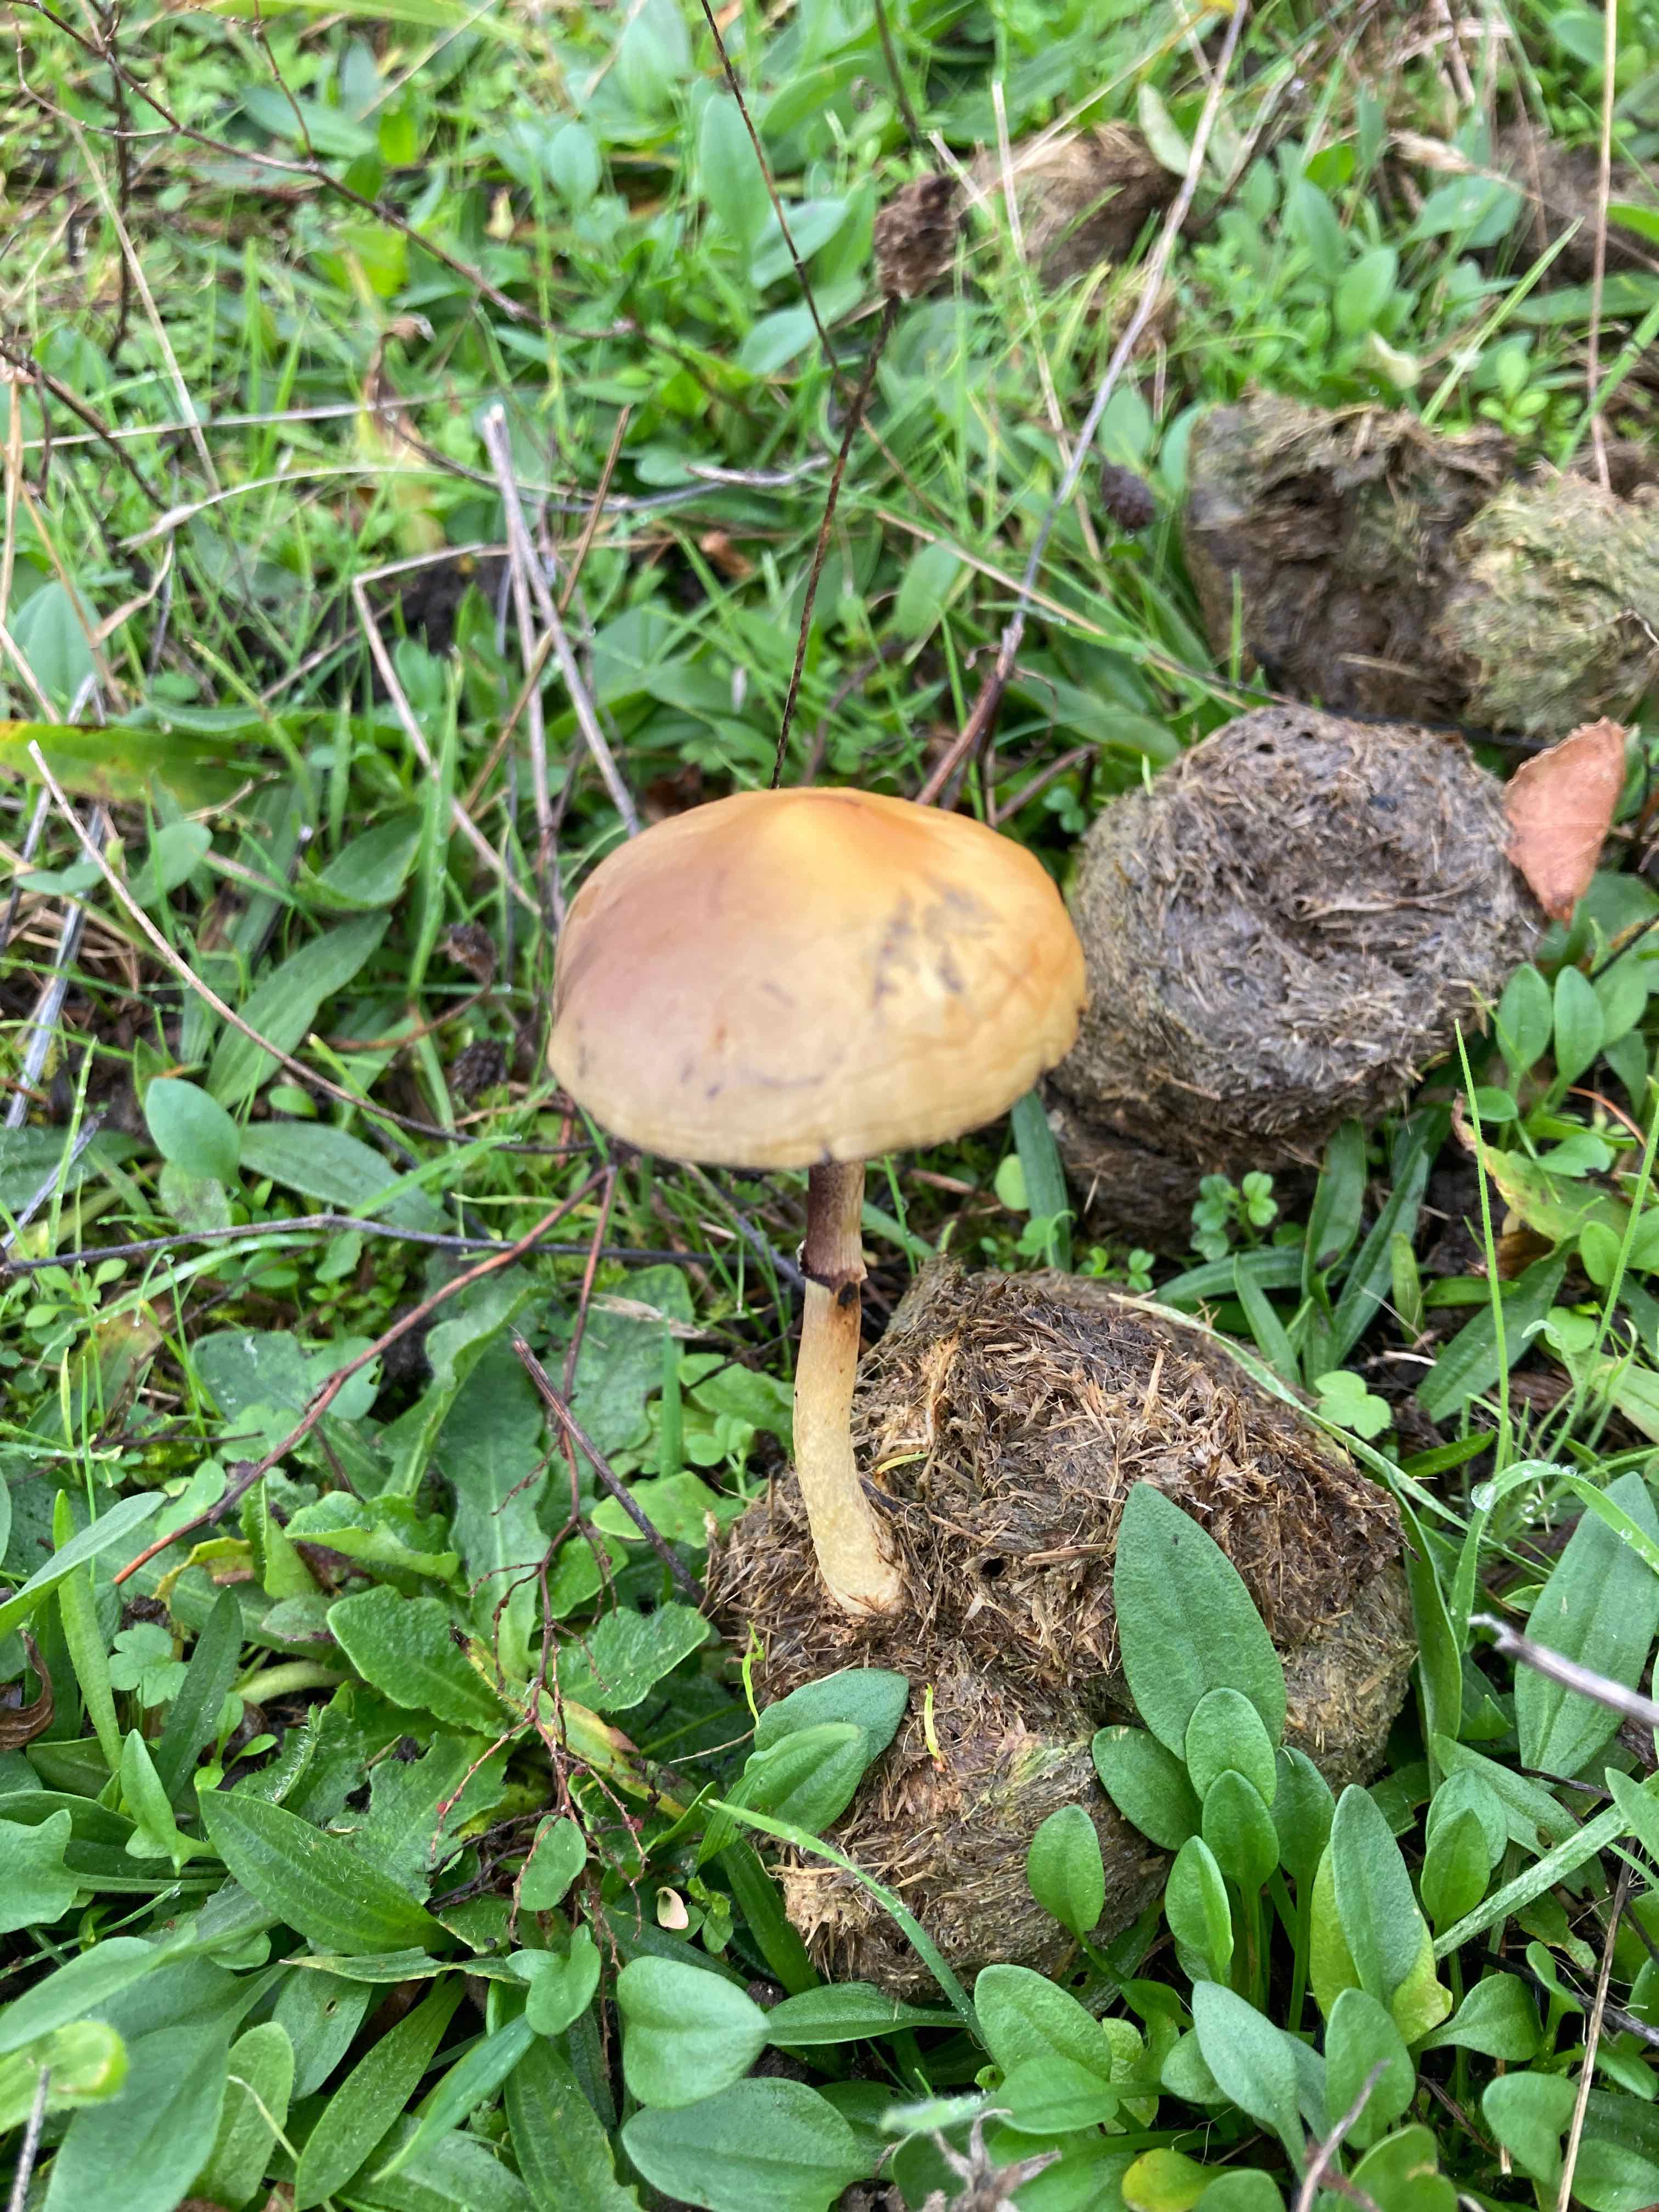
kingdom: Fungi
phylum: Basidiomycota
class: Agaricomycetes
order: Agaricales
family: Strophariaceae
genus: Protostropharia
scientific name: Protostropharia semiglobata
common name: halvkugleformet bredblad
